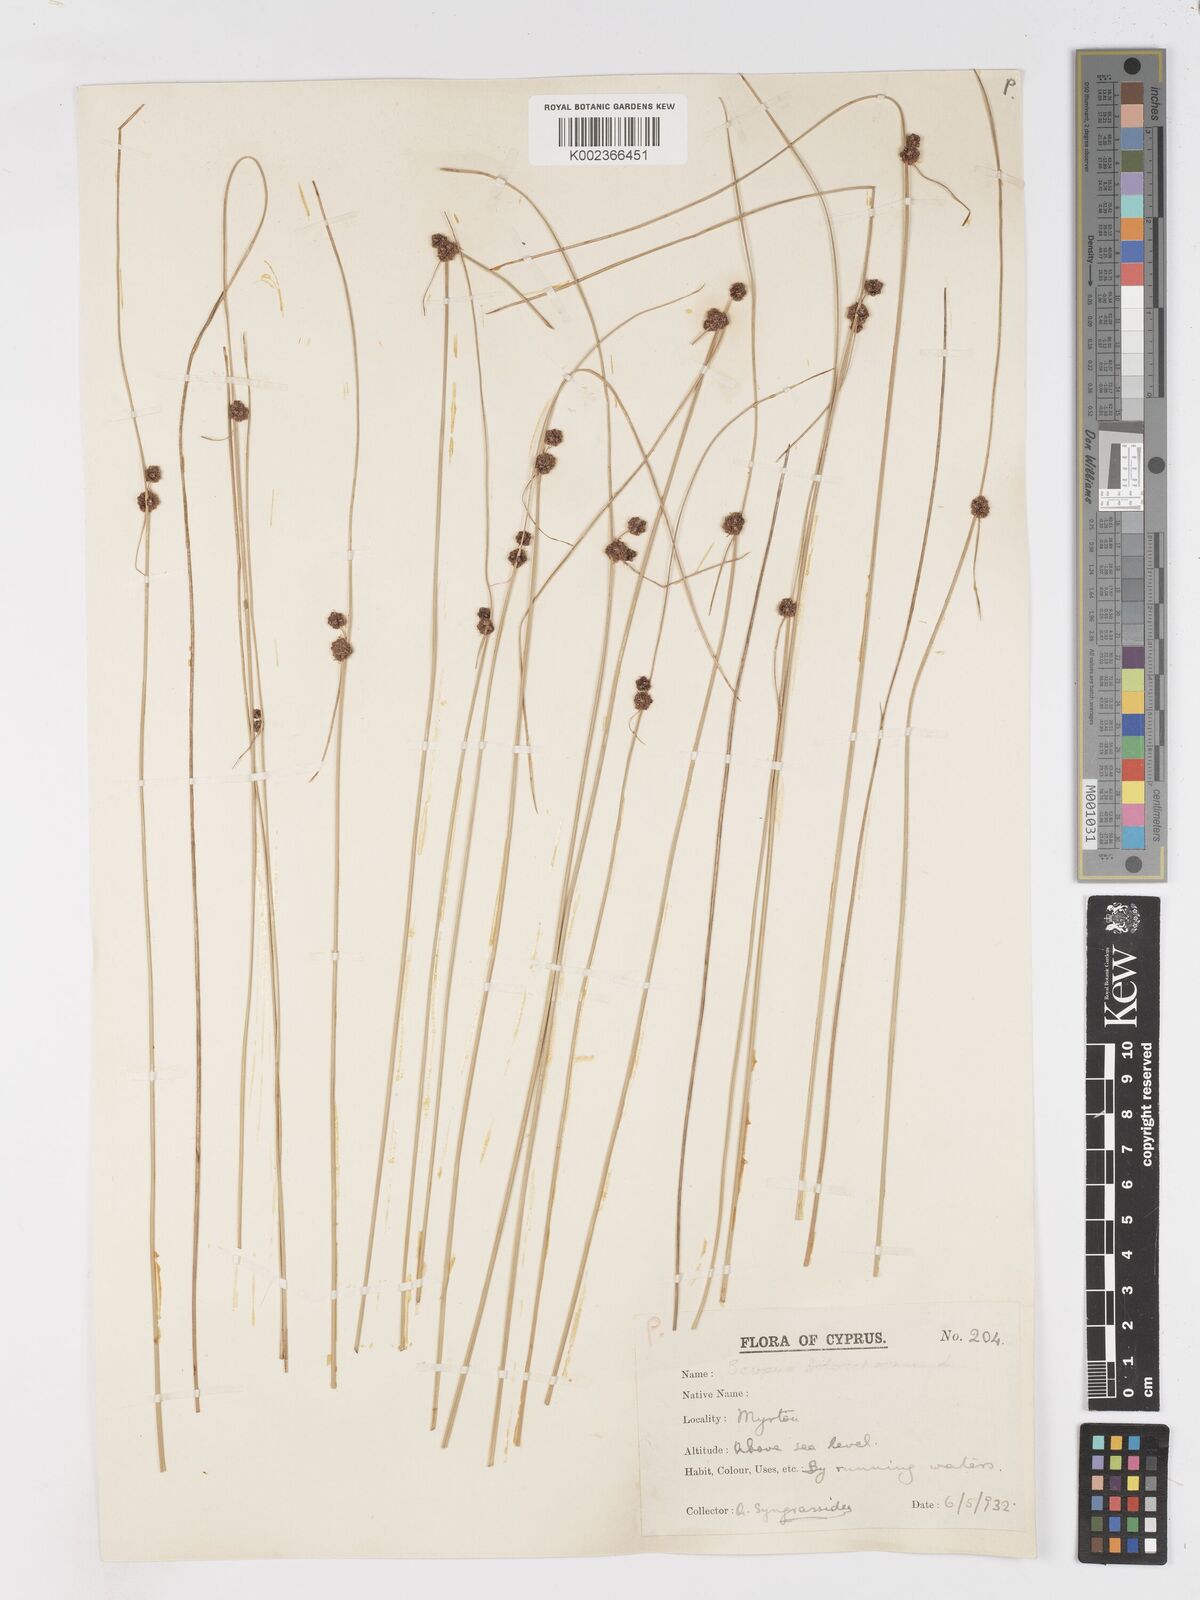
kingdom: Plantae
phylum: Tracheophyta
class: Liliopsida
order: Poales
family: Cyperaceae
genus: Scirpoides
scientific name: Scirpoides holoschoenus
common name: Round-headed club-rush
